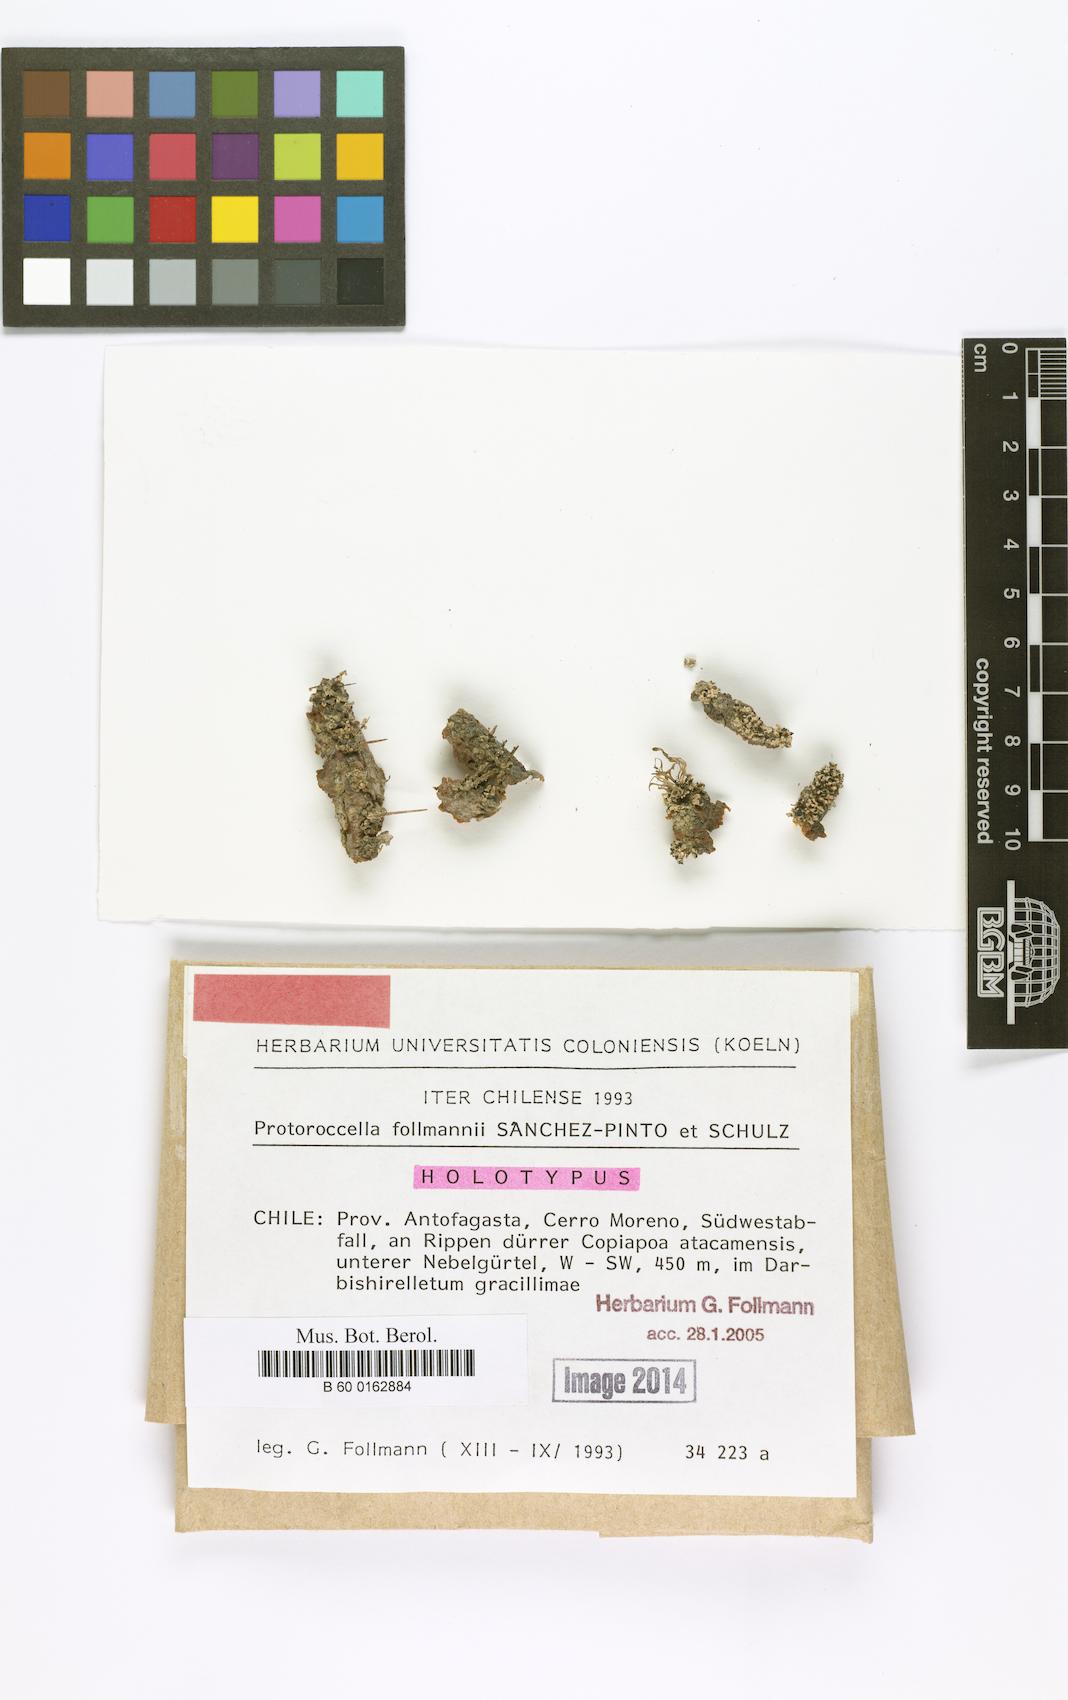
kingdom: Fungi
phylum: Ascomycota
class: Arthoniomycetes
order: Arthoniales
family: Roccellaceae
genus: Protoroccella
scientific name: Protoroccella
